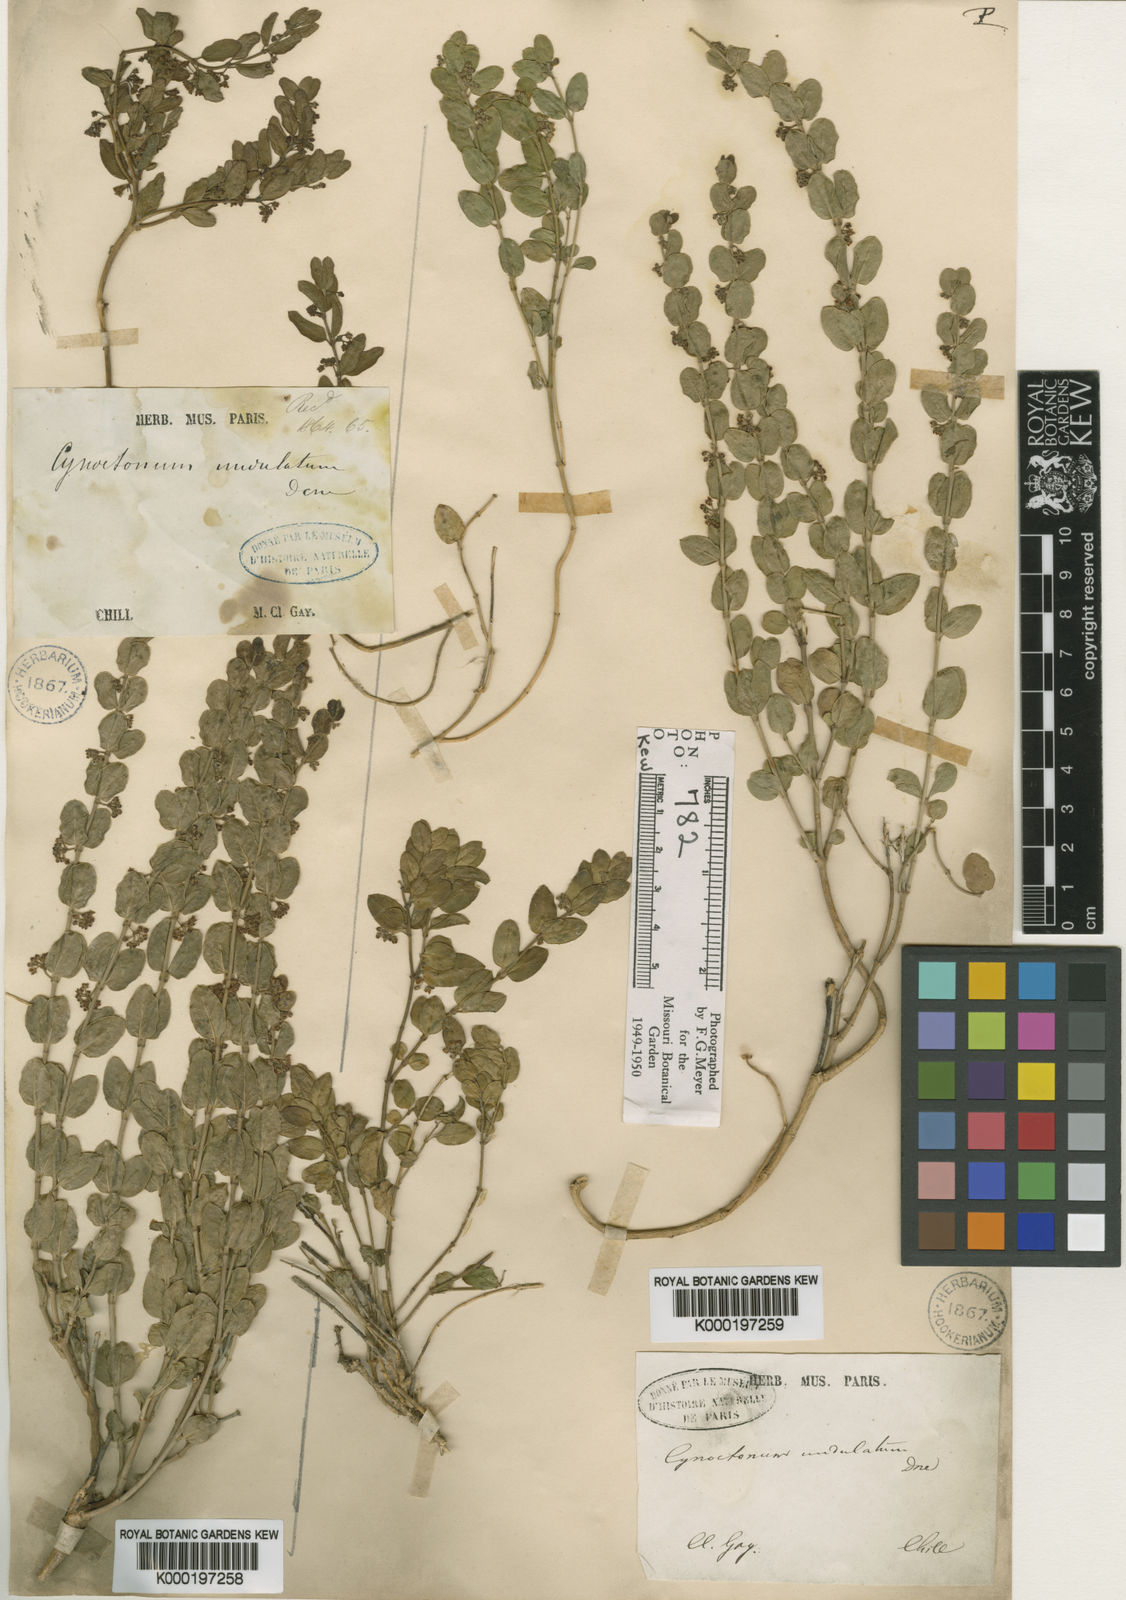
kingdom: Plantae
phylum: Tracheophyta
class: Magnoliopsida
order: Gentianales
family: Apocynaceae
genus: Diplolepis
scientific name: Diplolepis nummulariifolia
